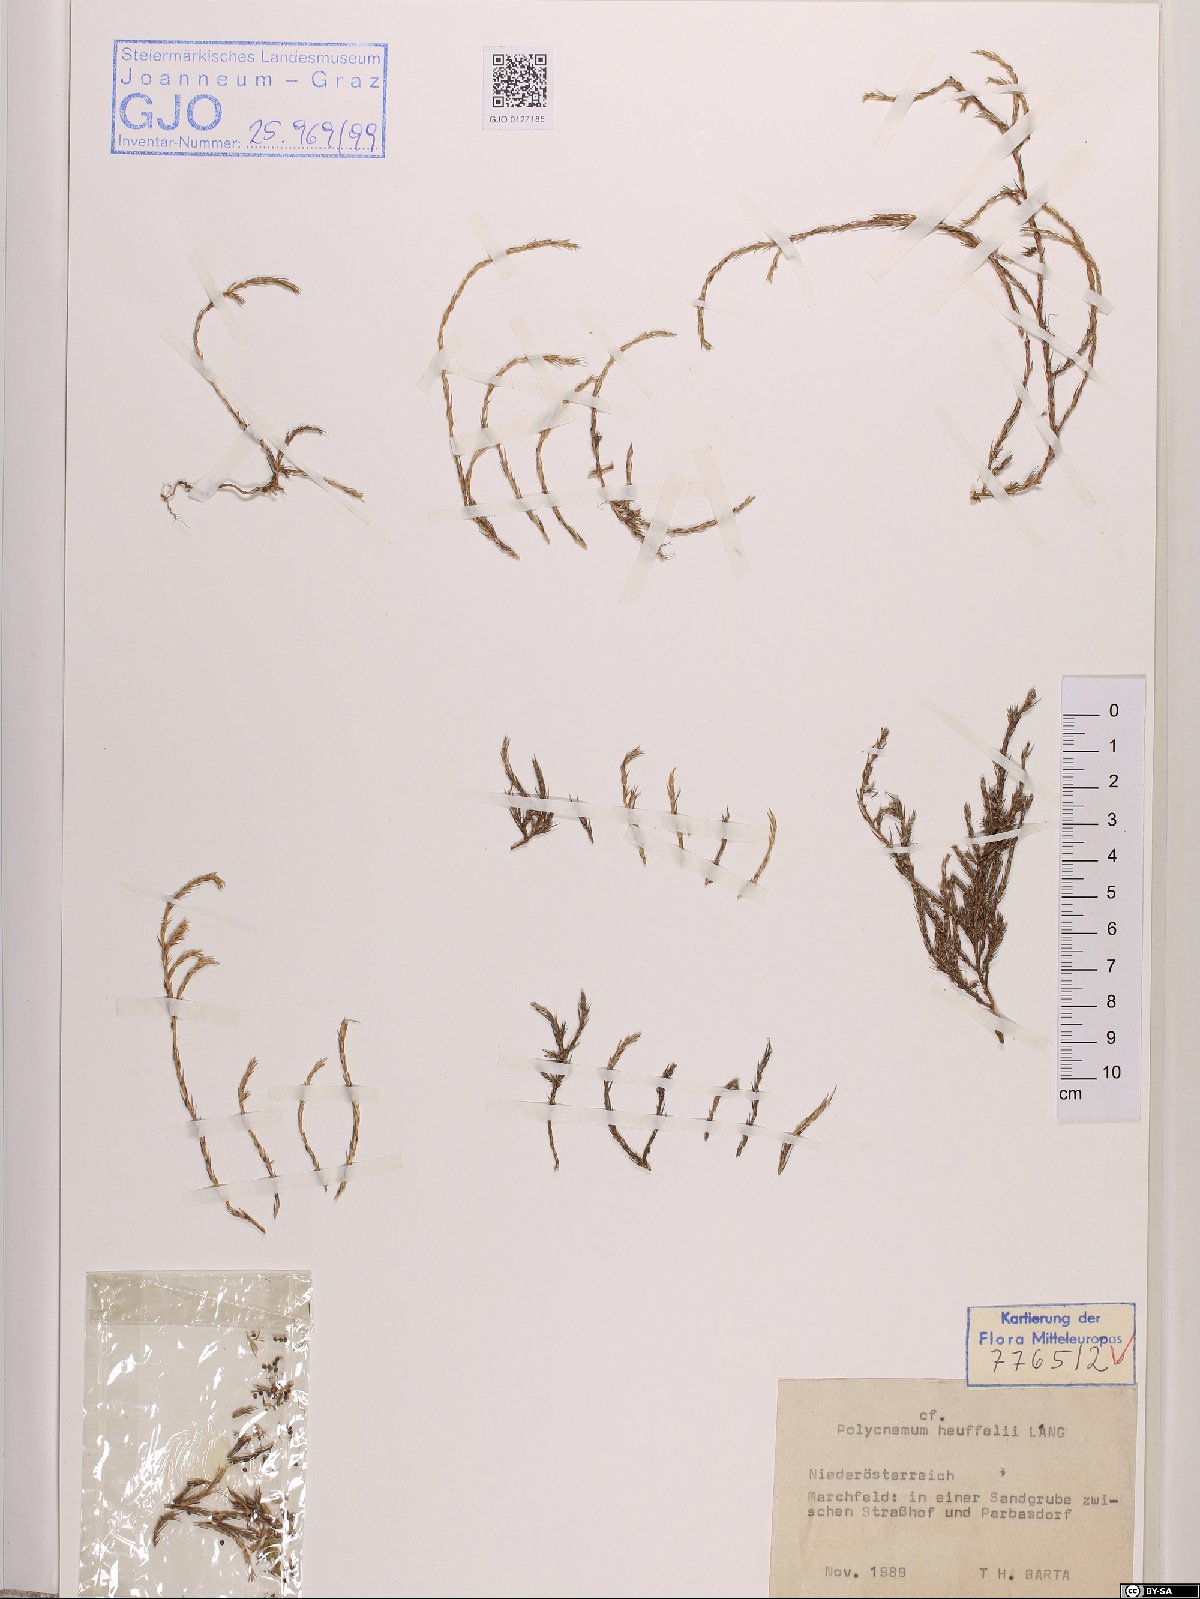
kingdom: Plantae
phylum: Tracheophyta
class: Magnoliopsida
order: Caryophyllales
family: Amaranthaceae
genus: Polycnemum
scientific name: Polycnemum heuffelii
